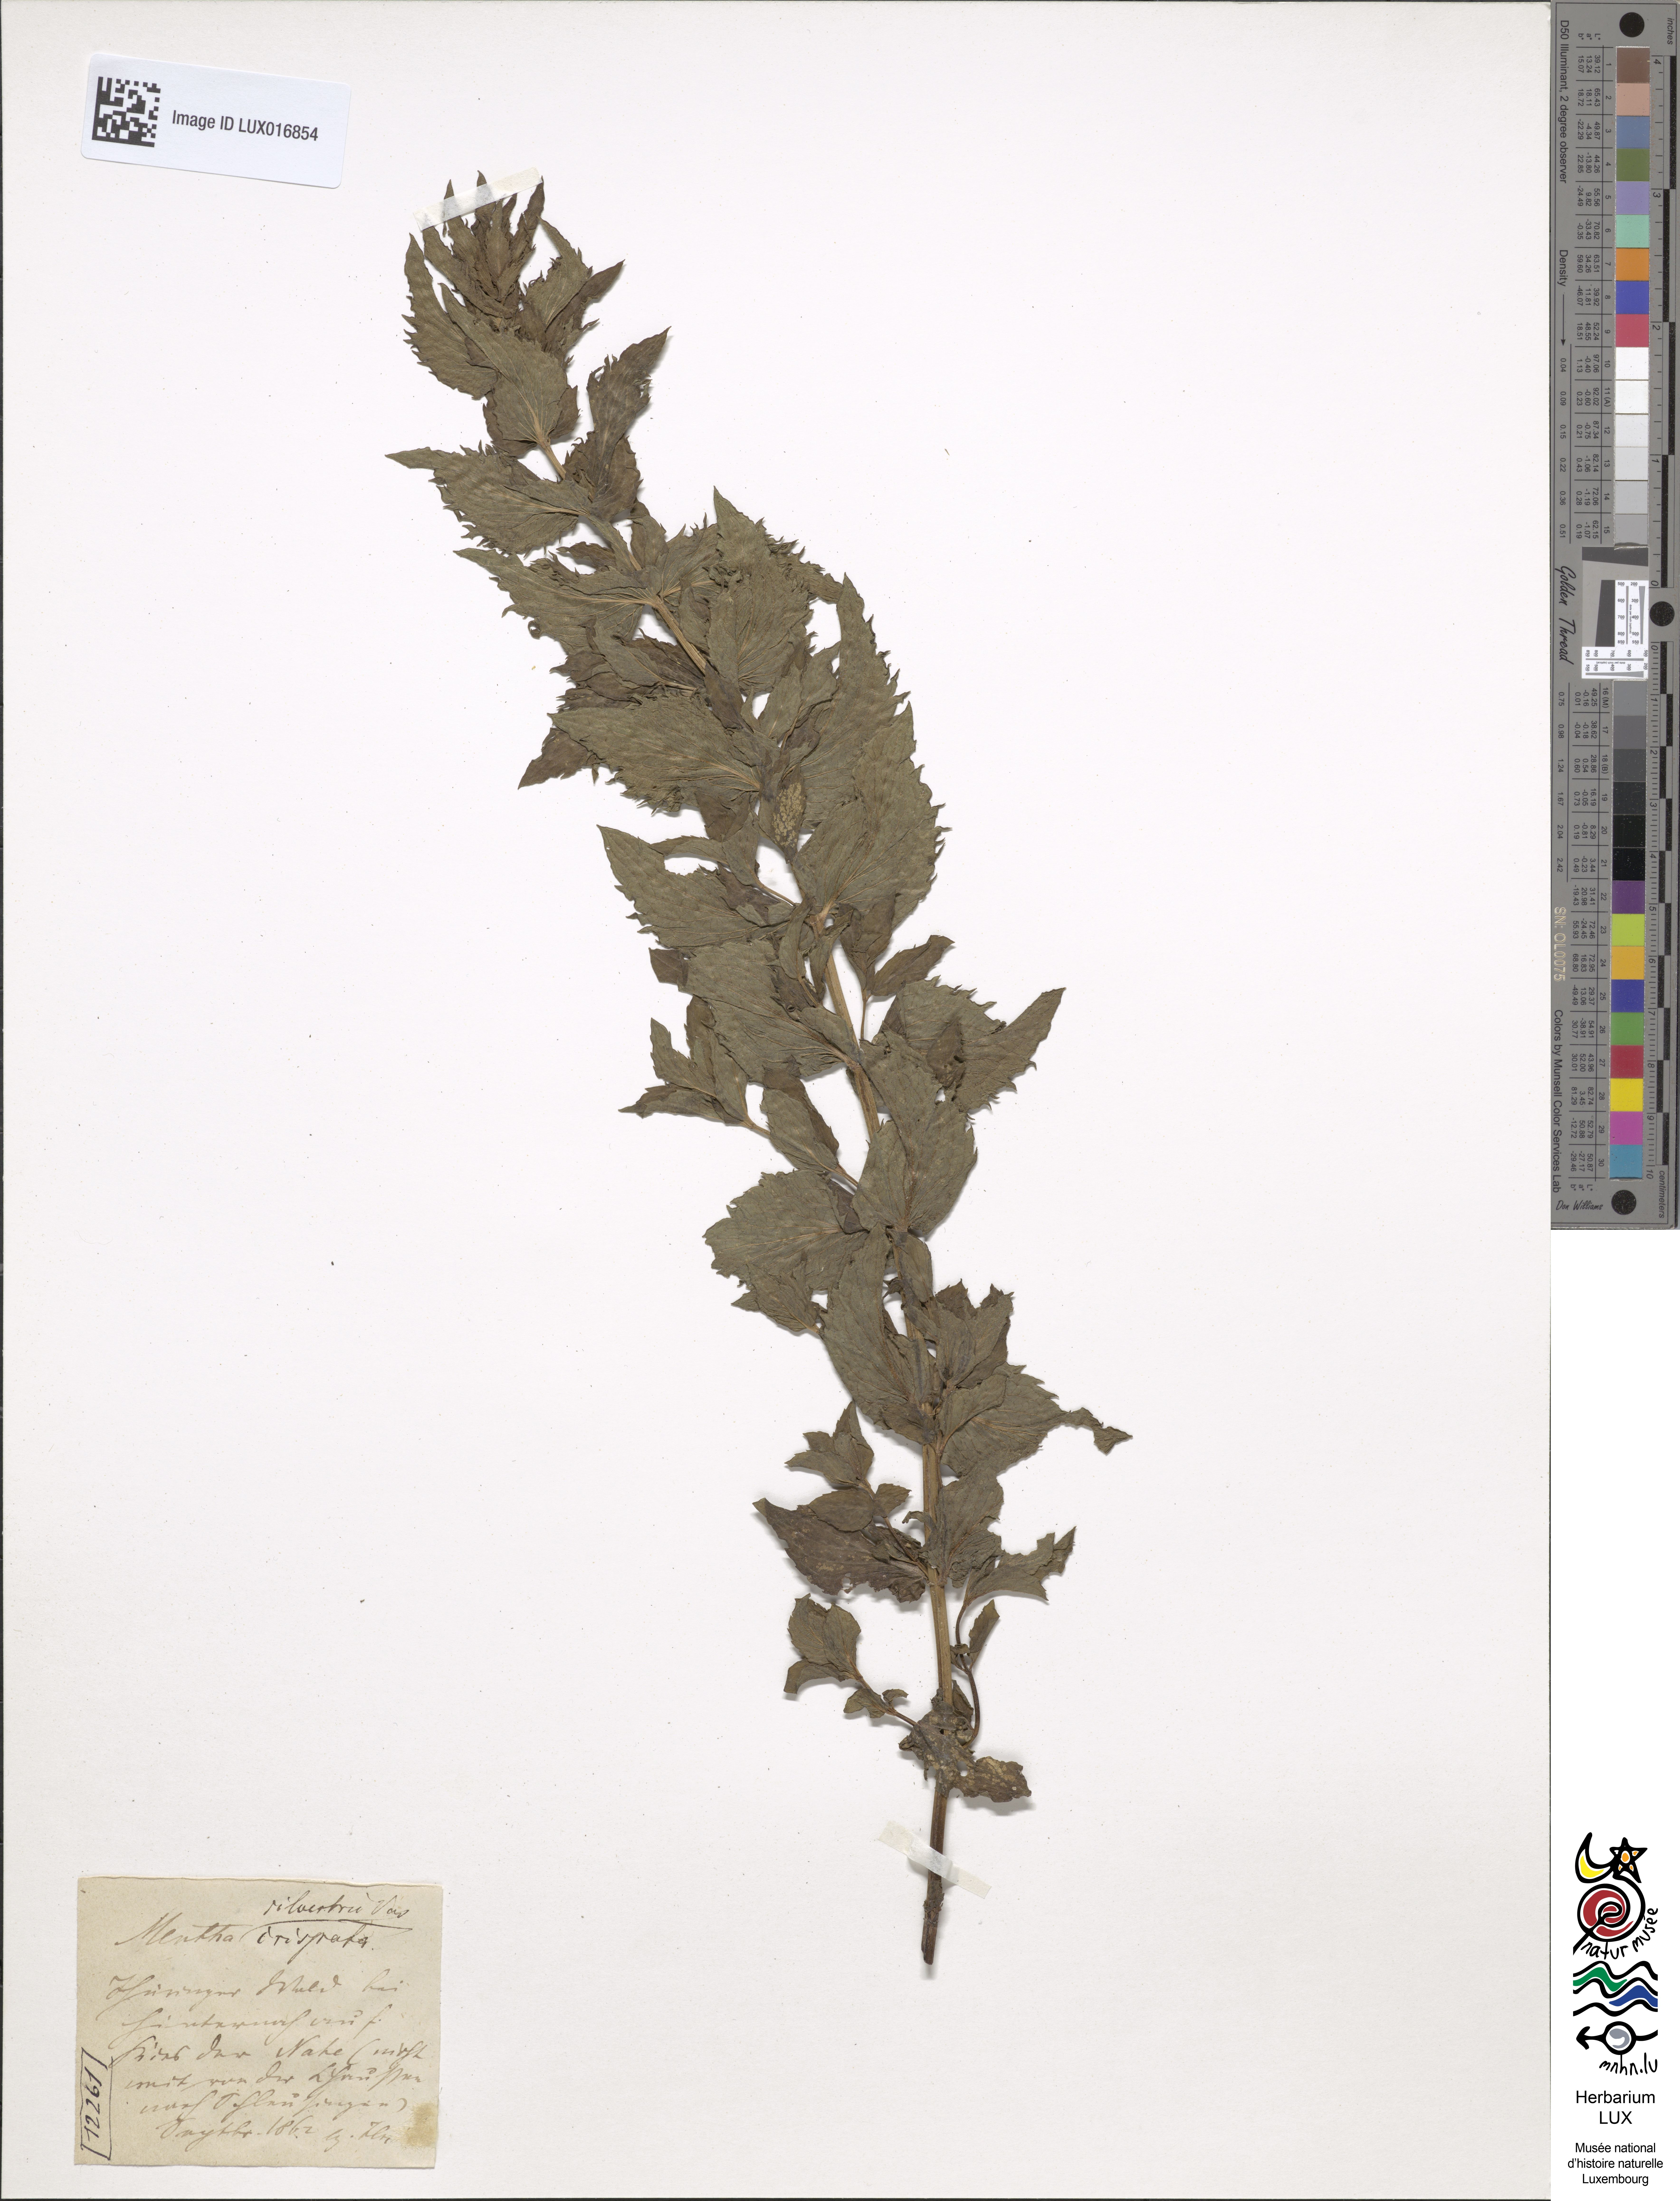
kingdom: Plantae
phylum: Tracheophyta
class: Magnoliopsida
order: Lamiales
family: Lamiaceae
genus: Mentha
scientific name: Mentha spicata
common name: Spearmint
